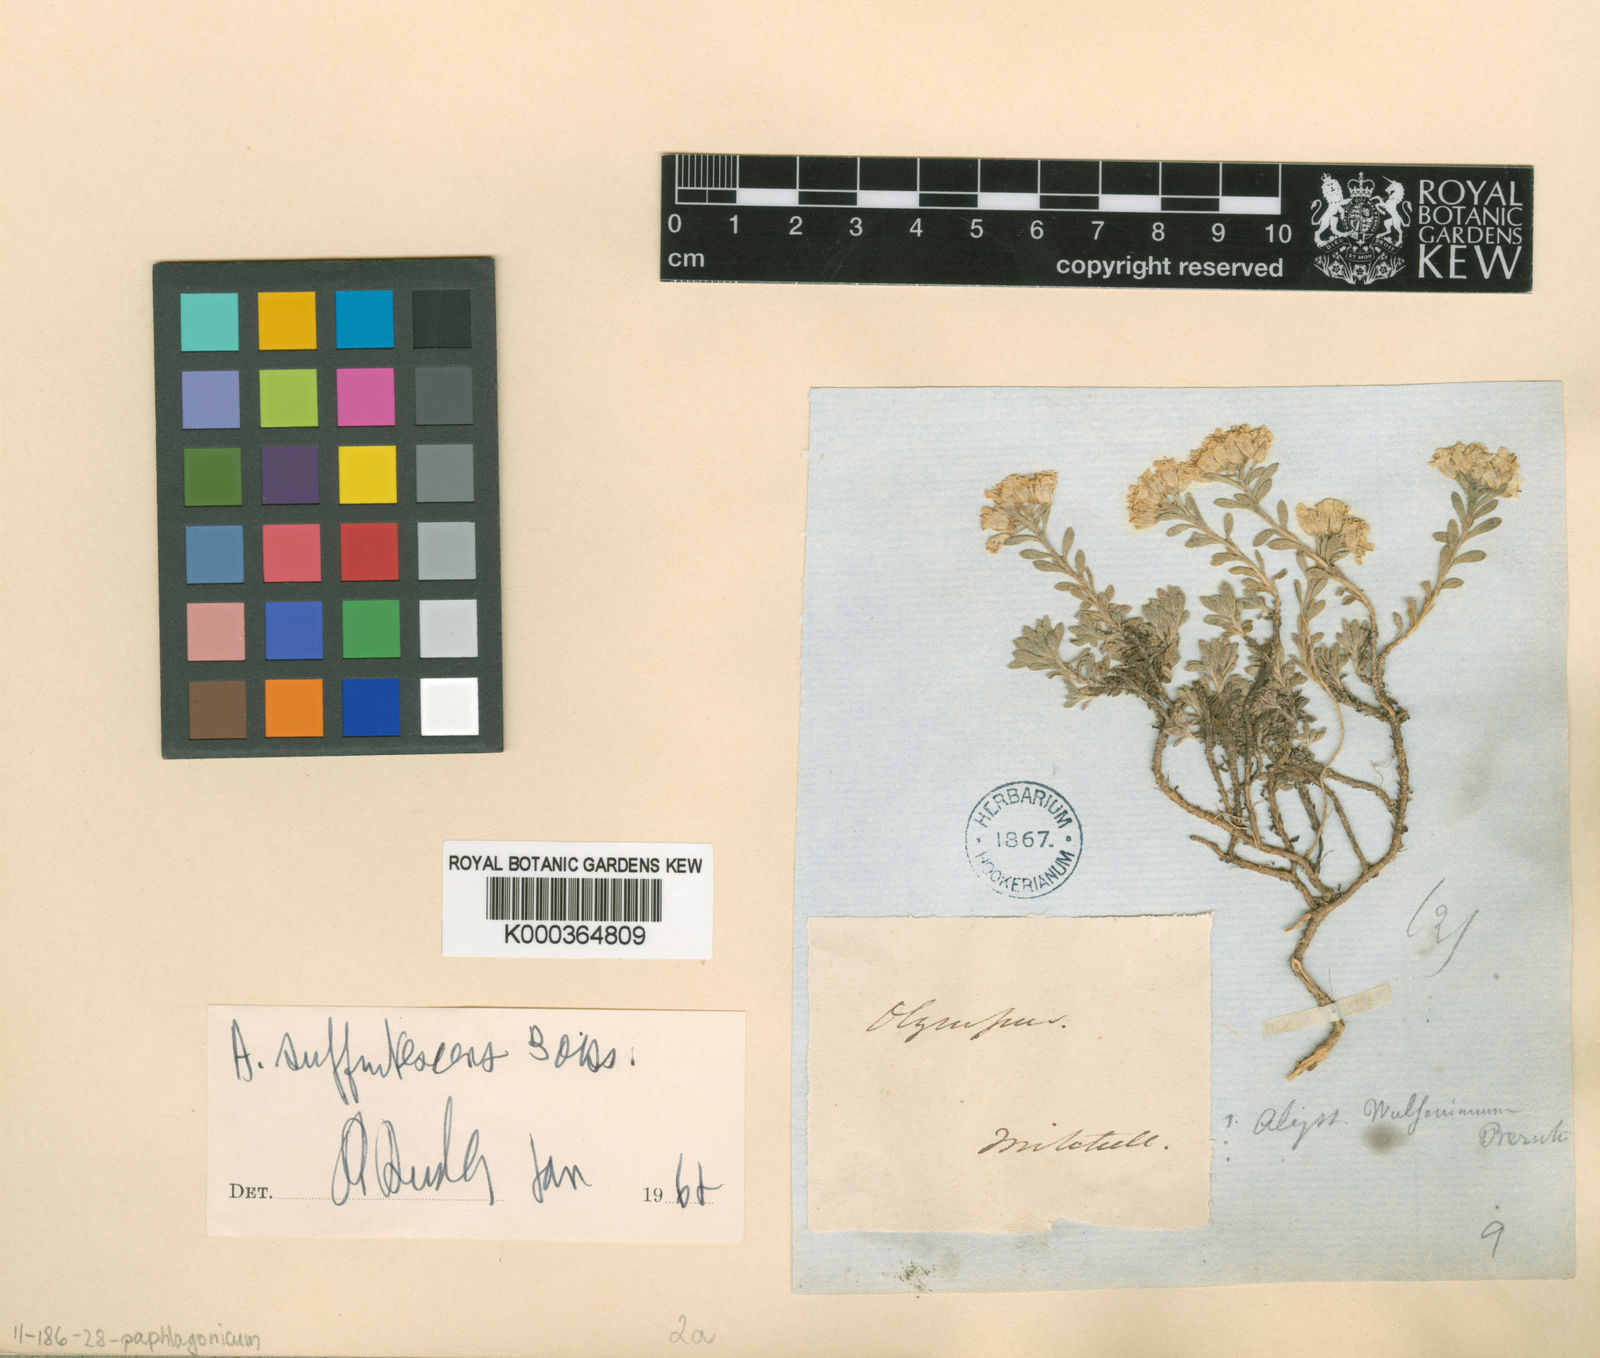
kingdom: Plantae
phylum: Tracheophyta
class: Magnoliopsida
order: Brassicales
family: Brassicaceae
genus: Draba
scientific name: Draba doerfleri
